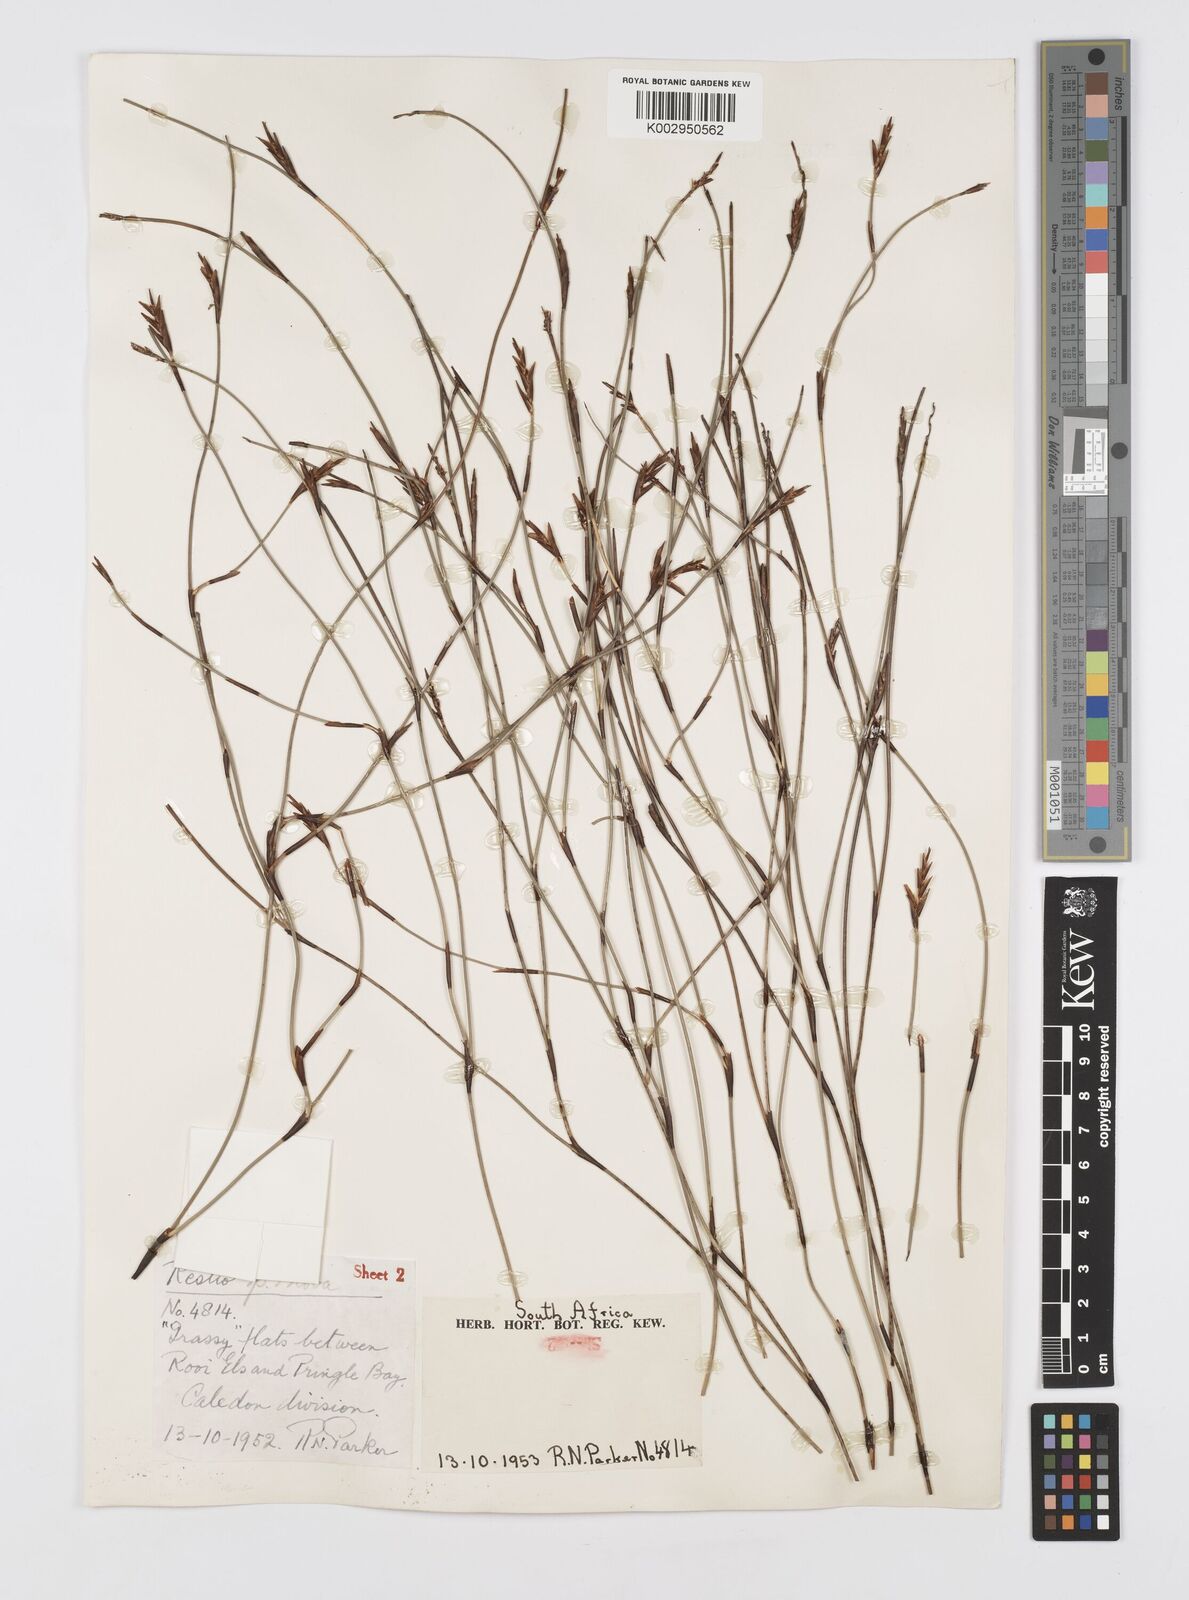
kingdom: Plantae
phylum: Tracheophyta
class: Liliopsida
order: Poales
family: Restionaceae
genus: Soroveta
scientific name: Soroveta ambigua
